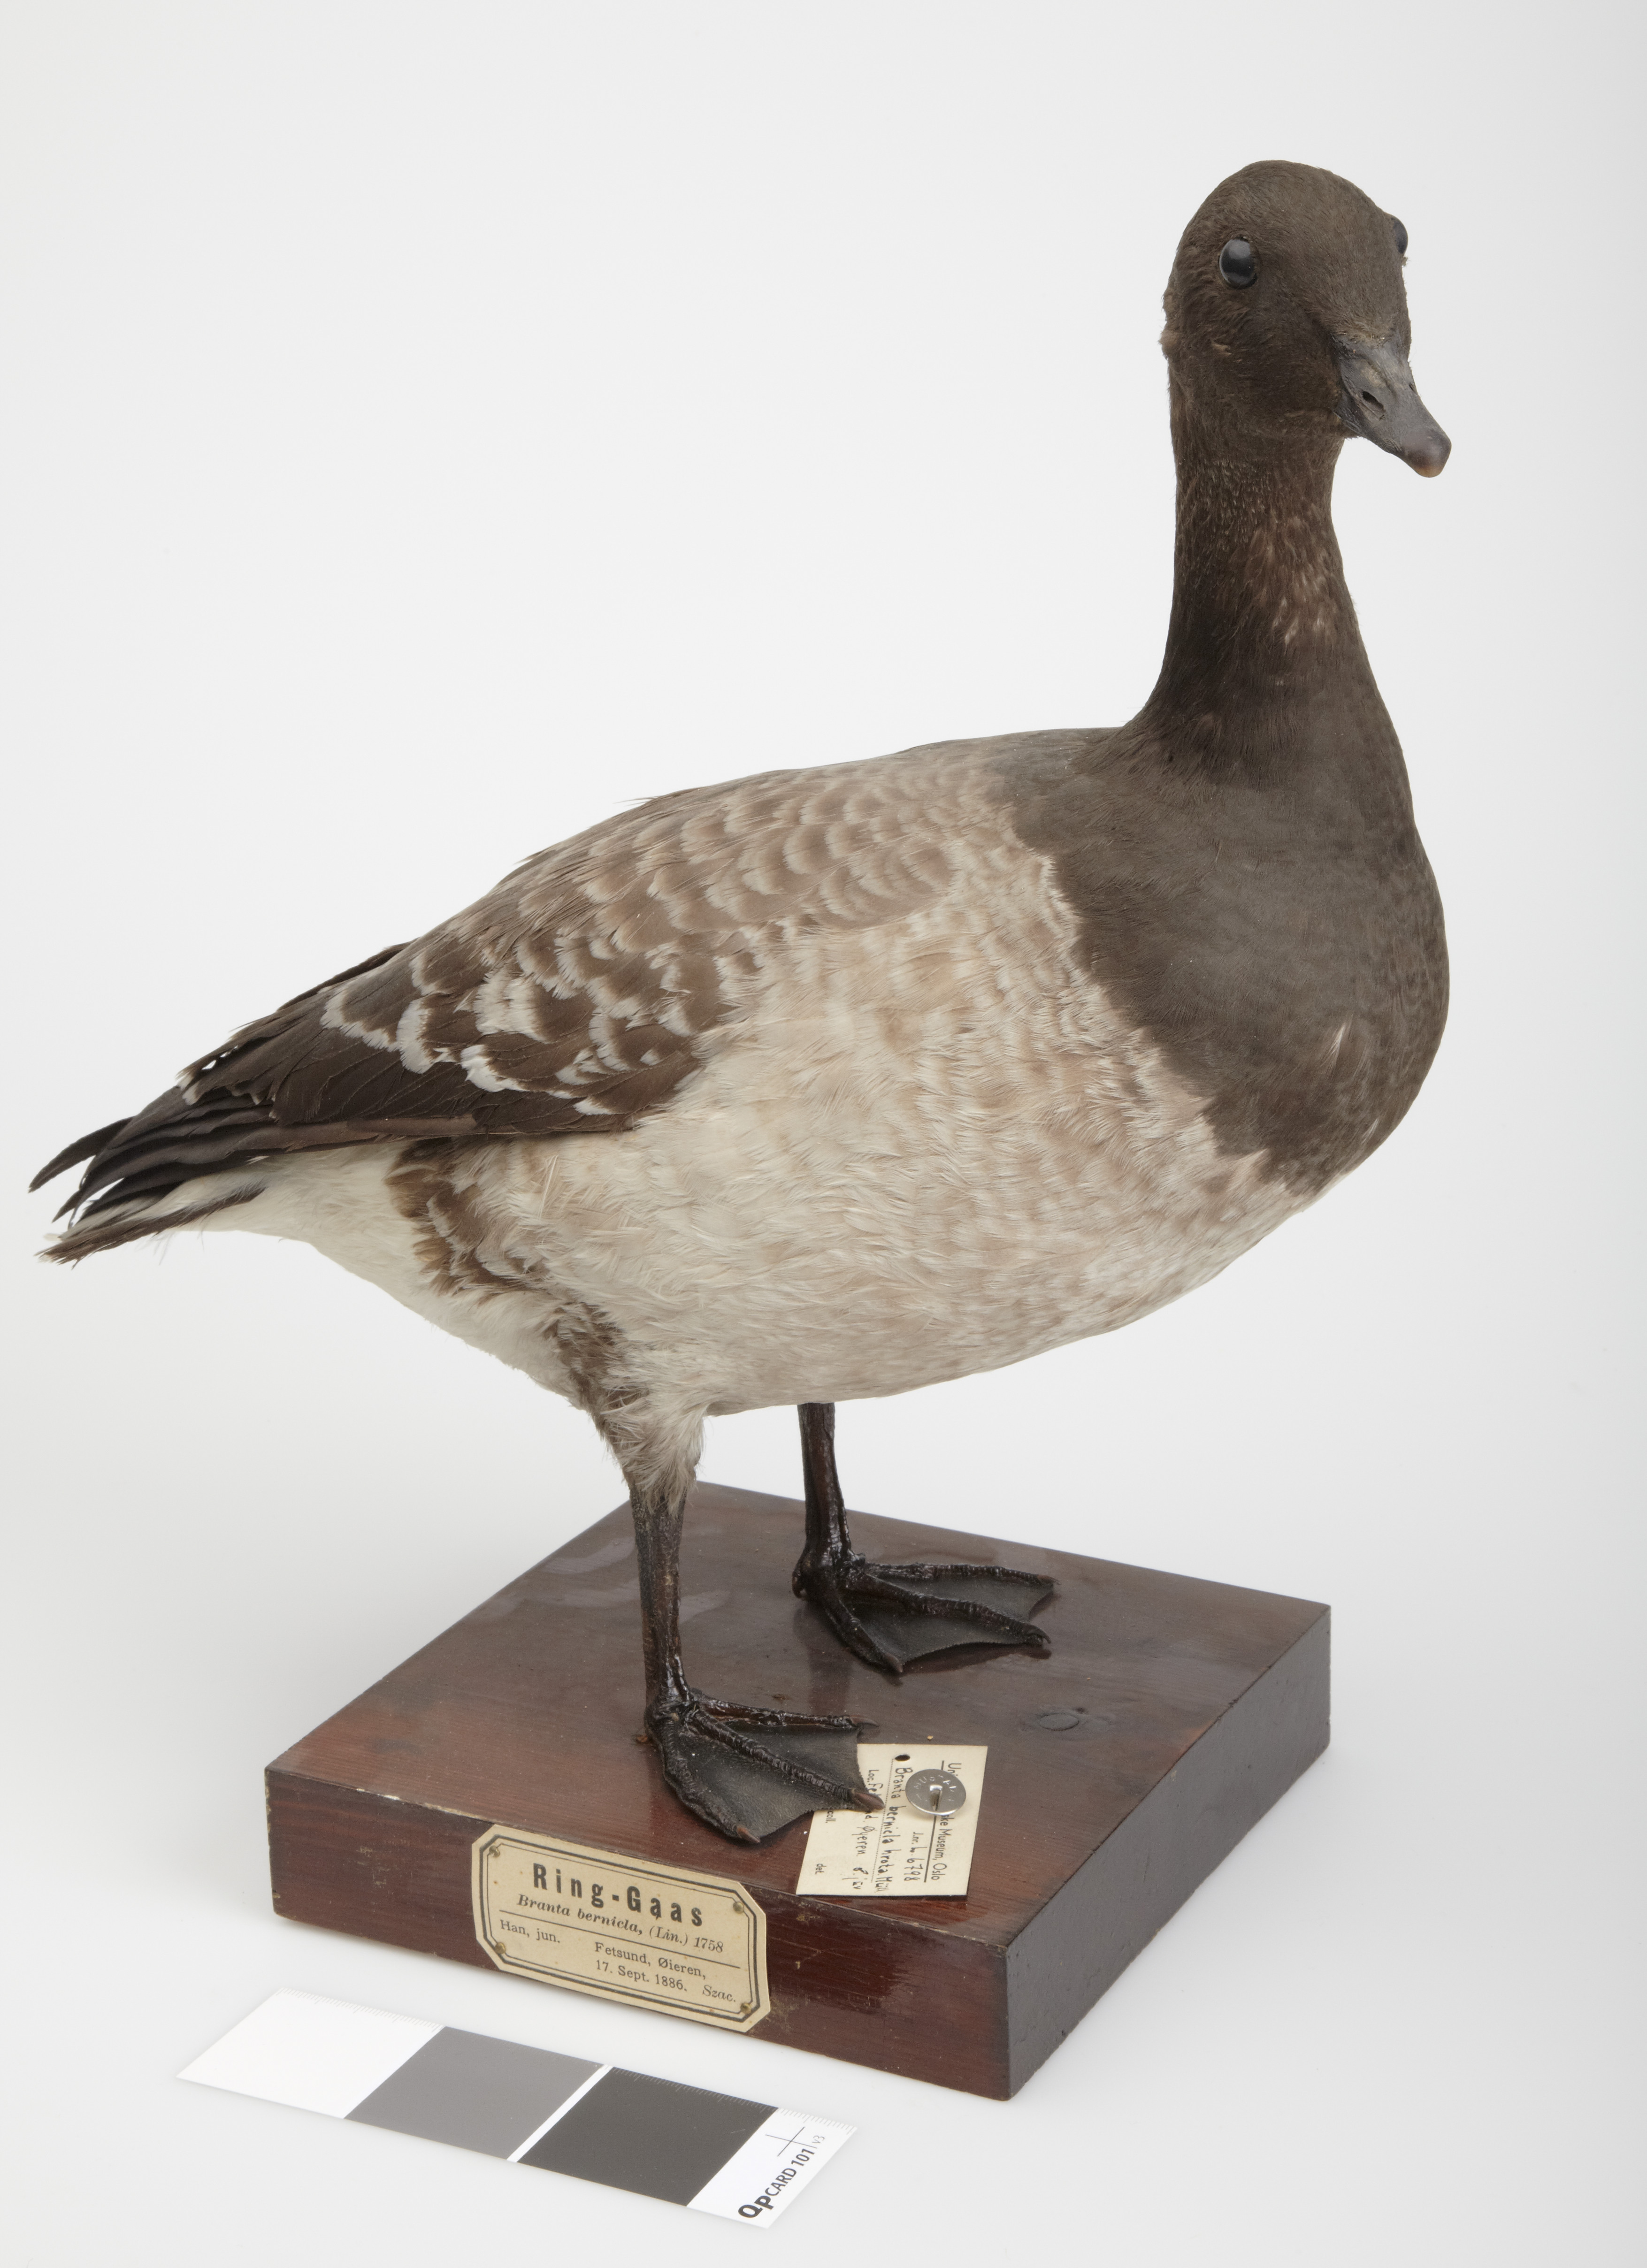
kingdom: Animalia
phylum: Chordata
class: Aves
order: Anseriformes
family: Anatidae
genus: Branta
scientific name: Branta bernicla
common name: Brant goose
